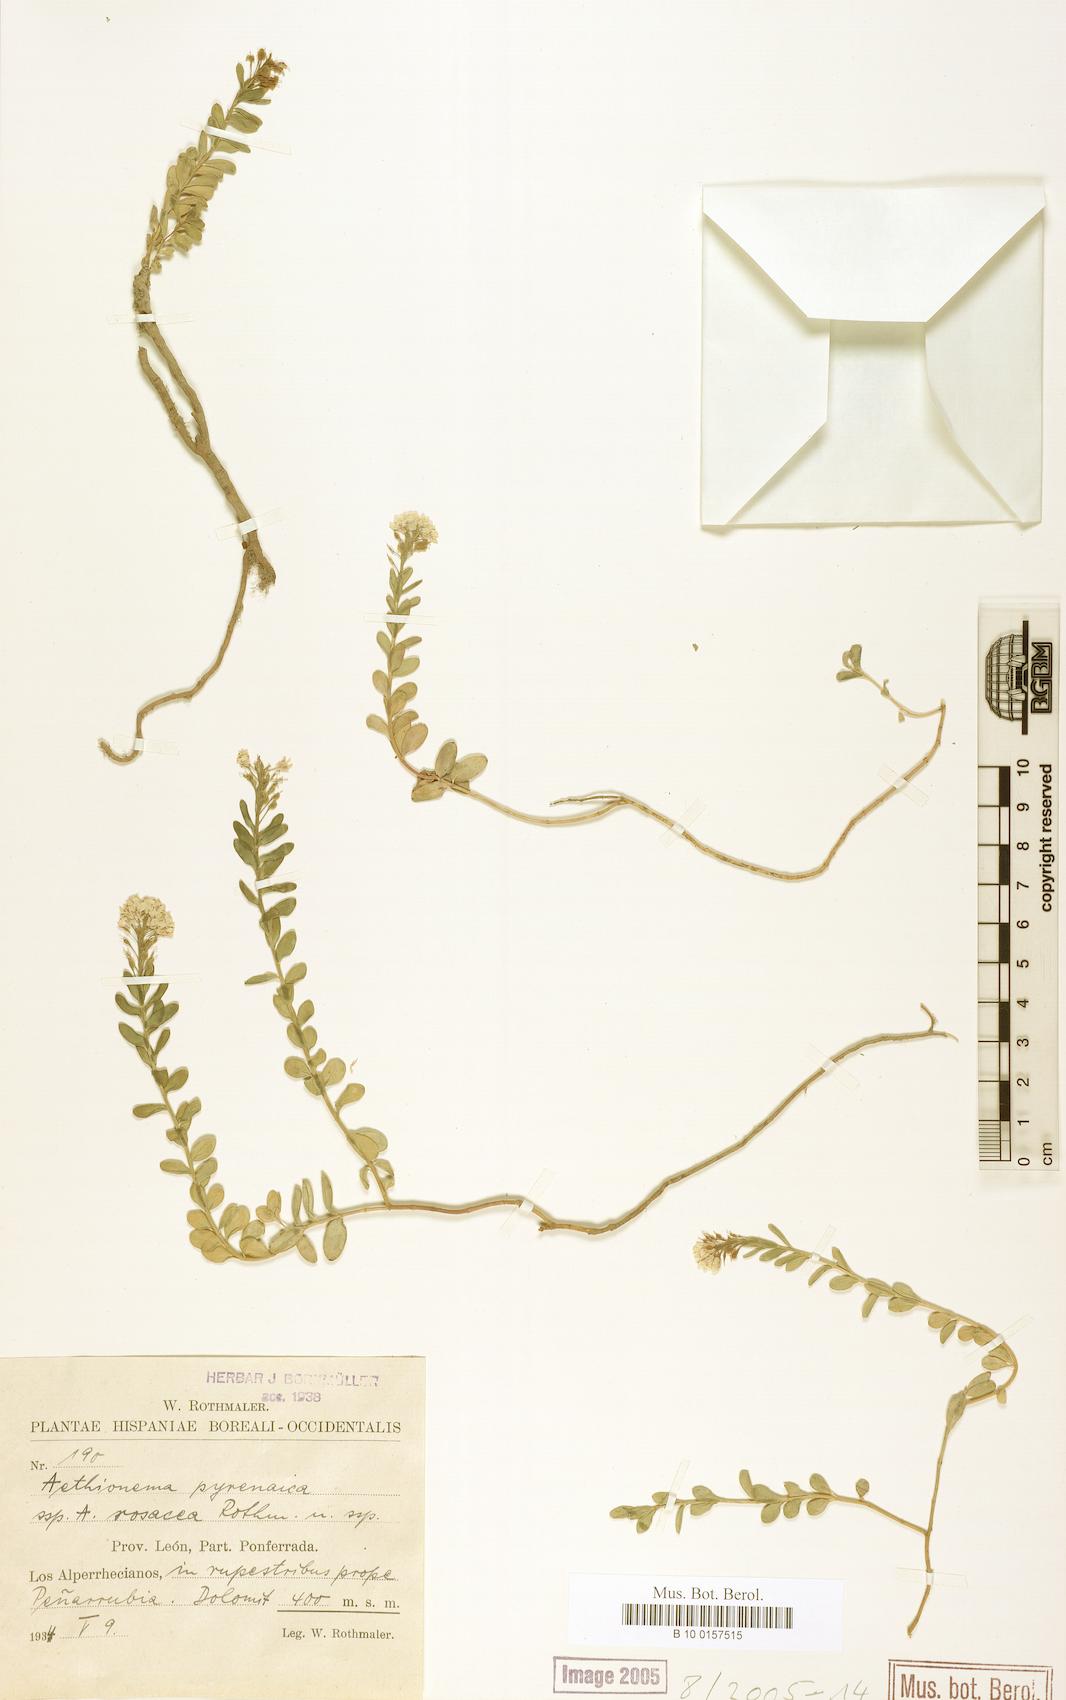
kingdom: Plantae
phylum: Tracheophyta
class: Magnoliopsida
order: Brassicales
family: Brassicaceae
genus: Aethionema
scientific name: Aethionema saxatile
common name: Burnt candytuft
